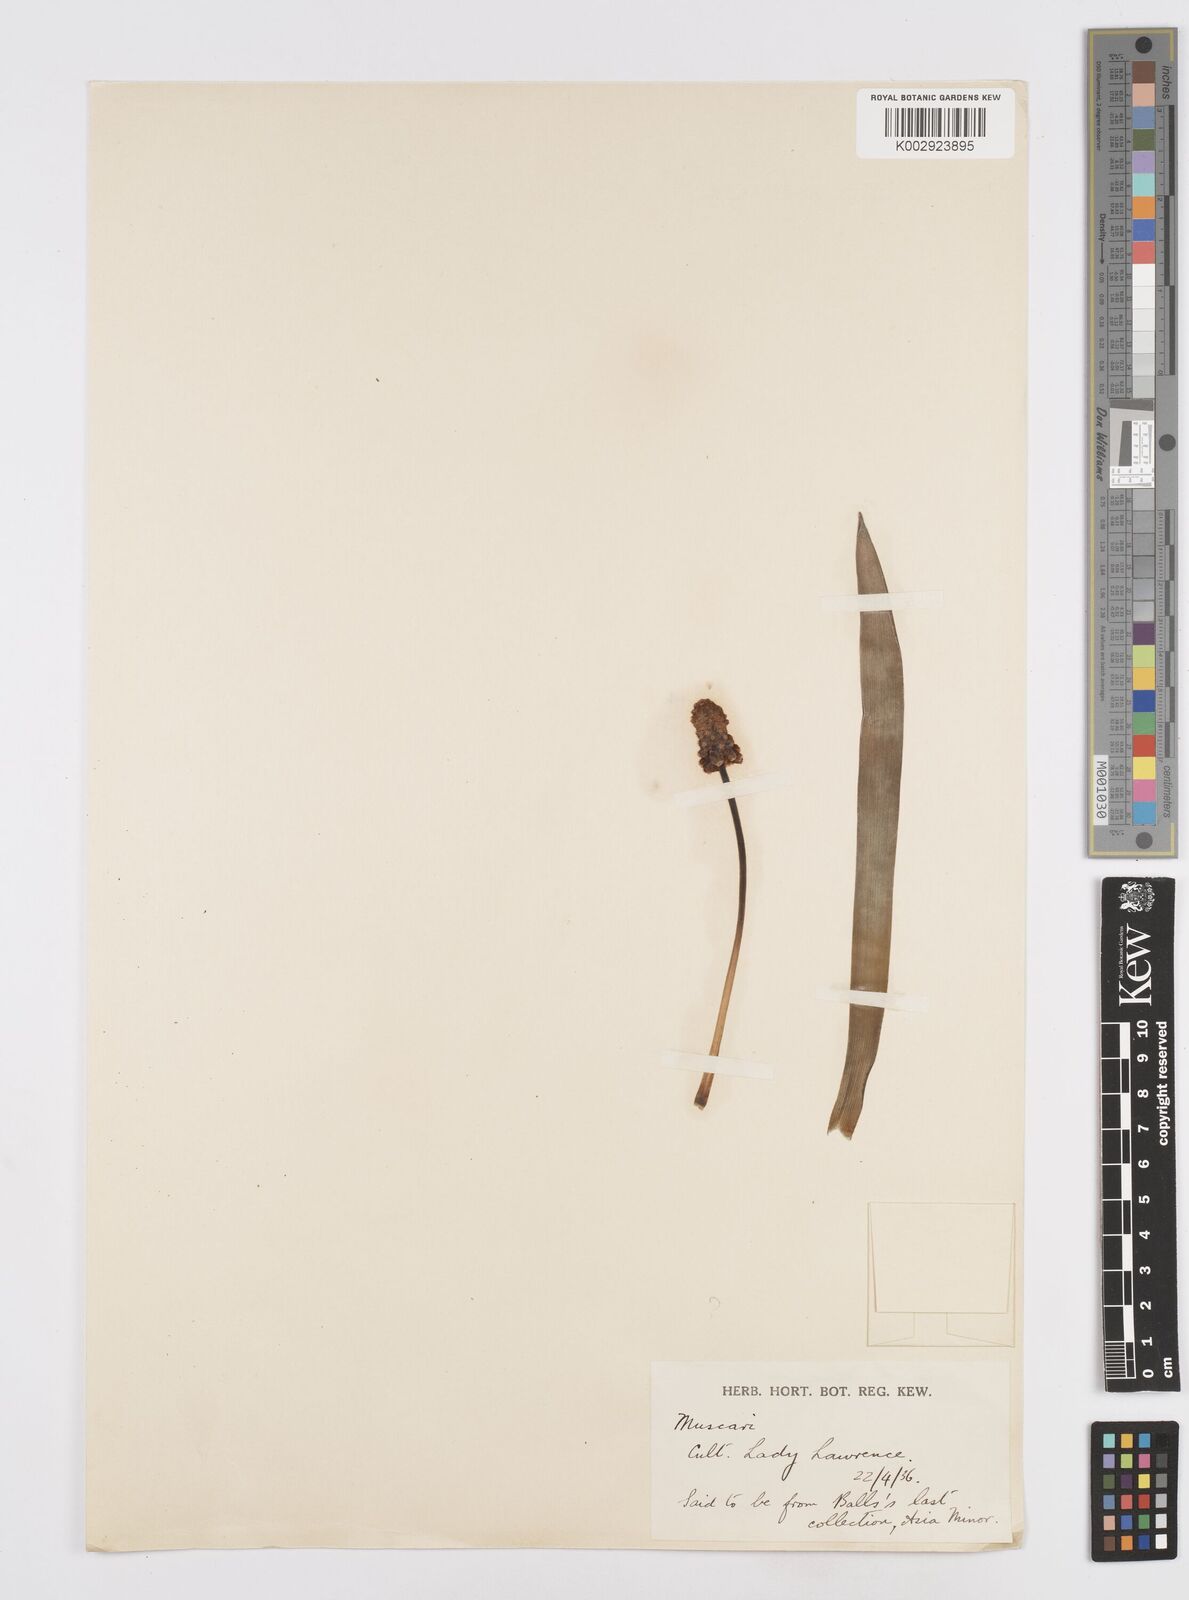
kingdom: Plantae
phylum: Tracheophyta
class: Liliopsida
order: Asparagales
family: Asparagaceae
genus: Muscari
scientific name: Muscari
